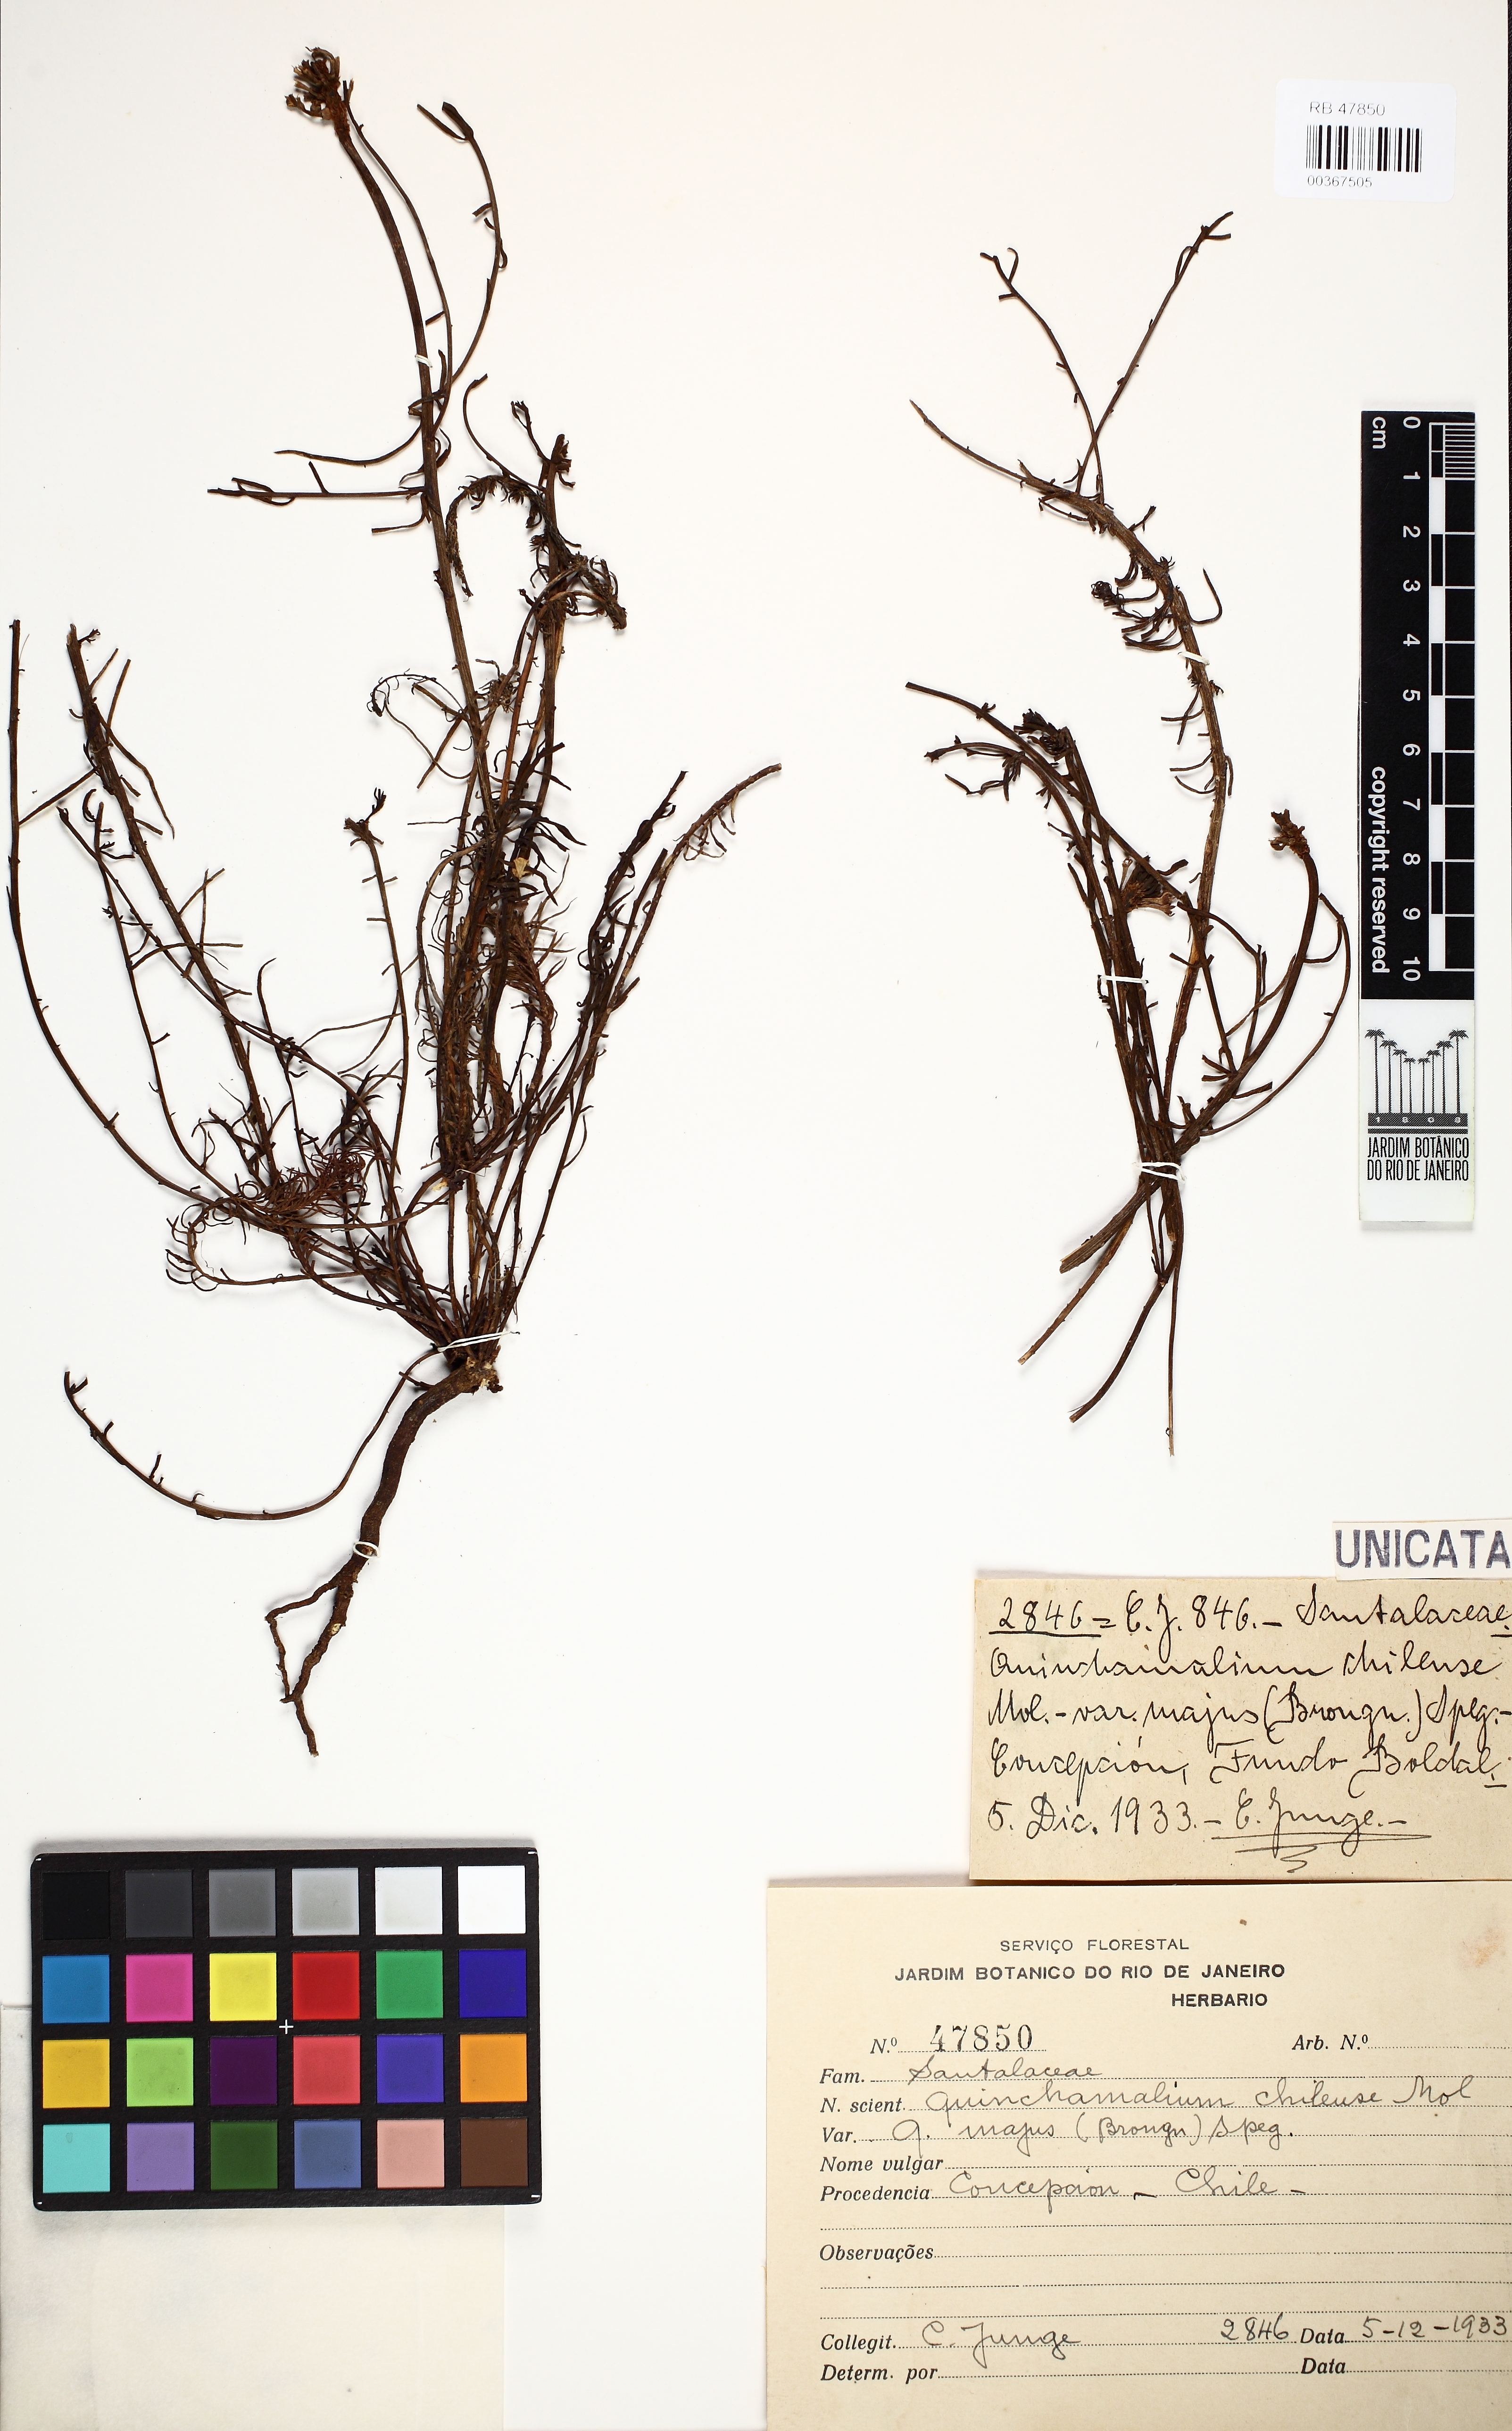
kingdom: Plantae
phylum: Tracheophyta
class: Magnoliopsida
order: Santalales
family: Schoepfiaceae
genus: Quinchamalium
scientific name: Quinchamalium chilense
